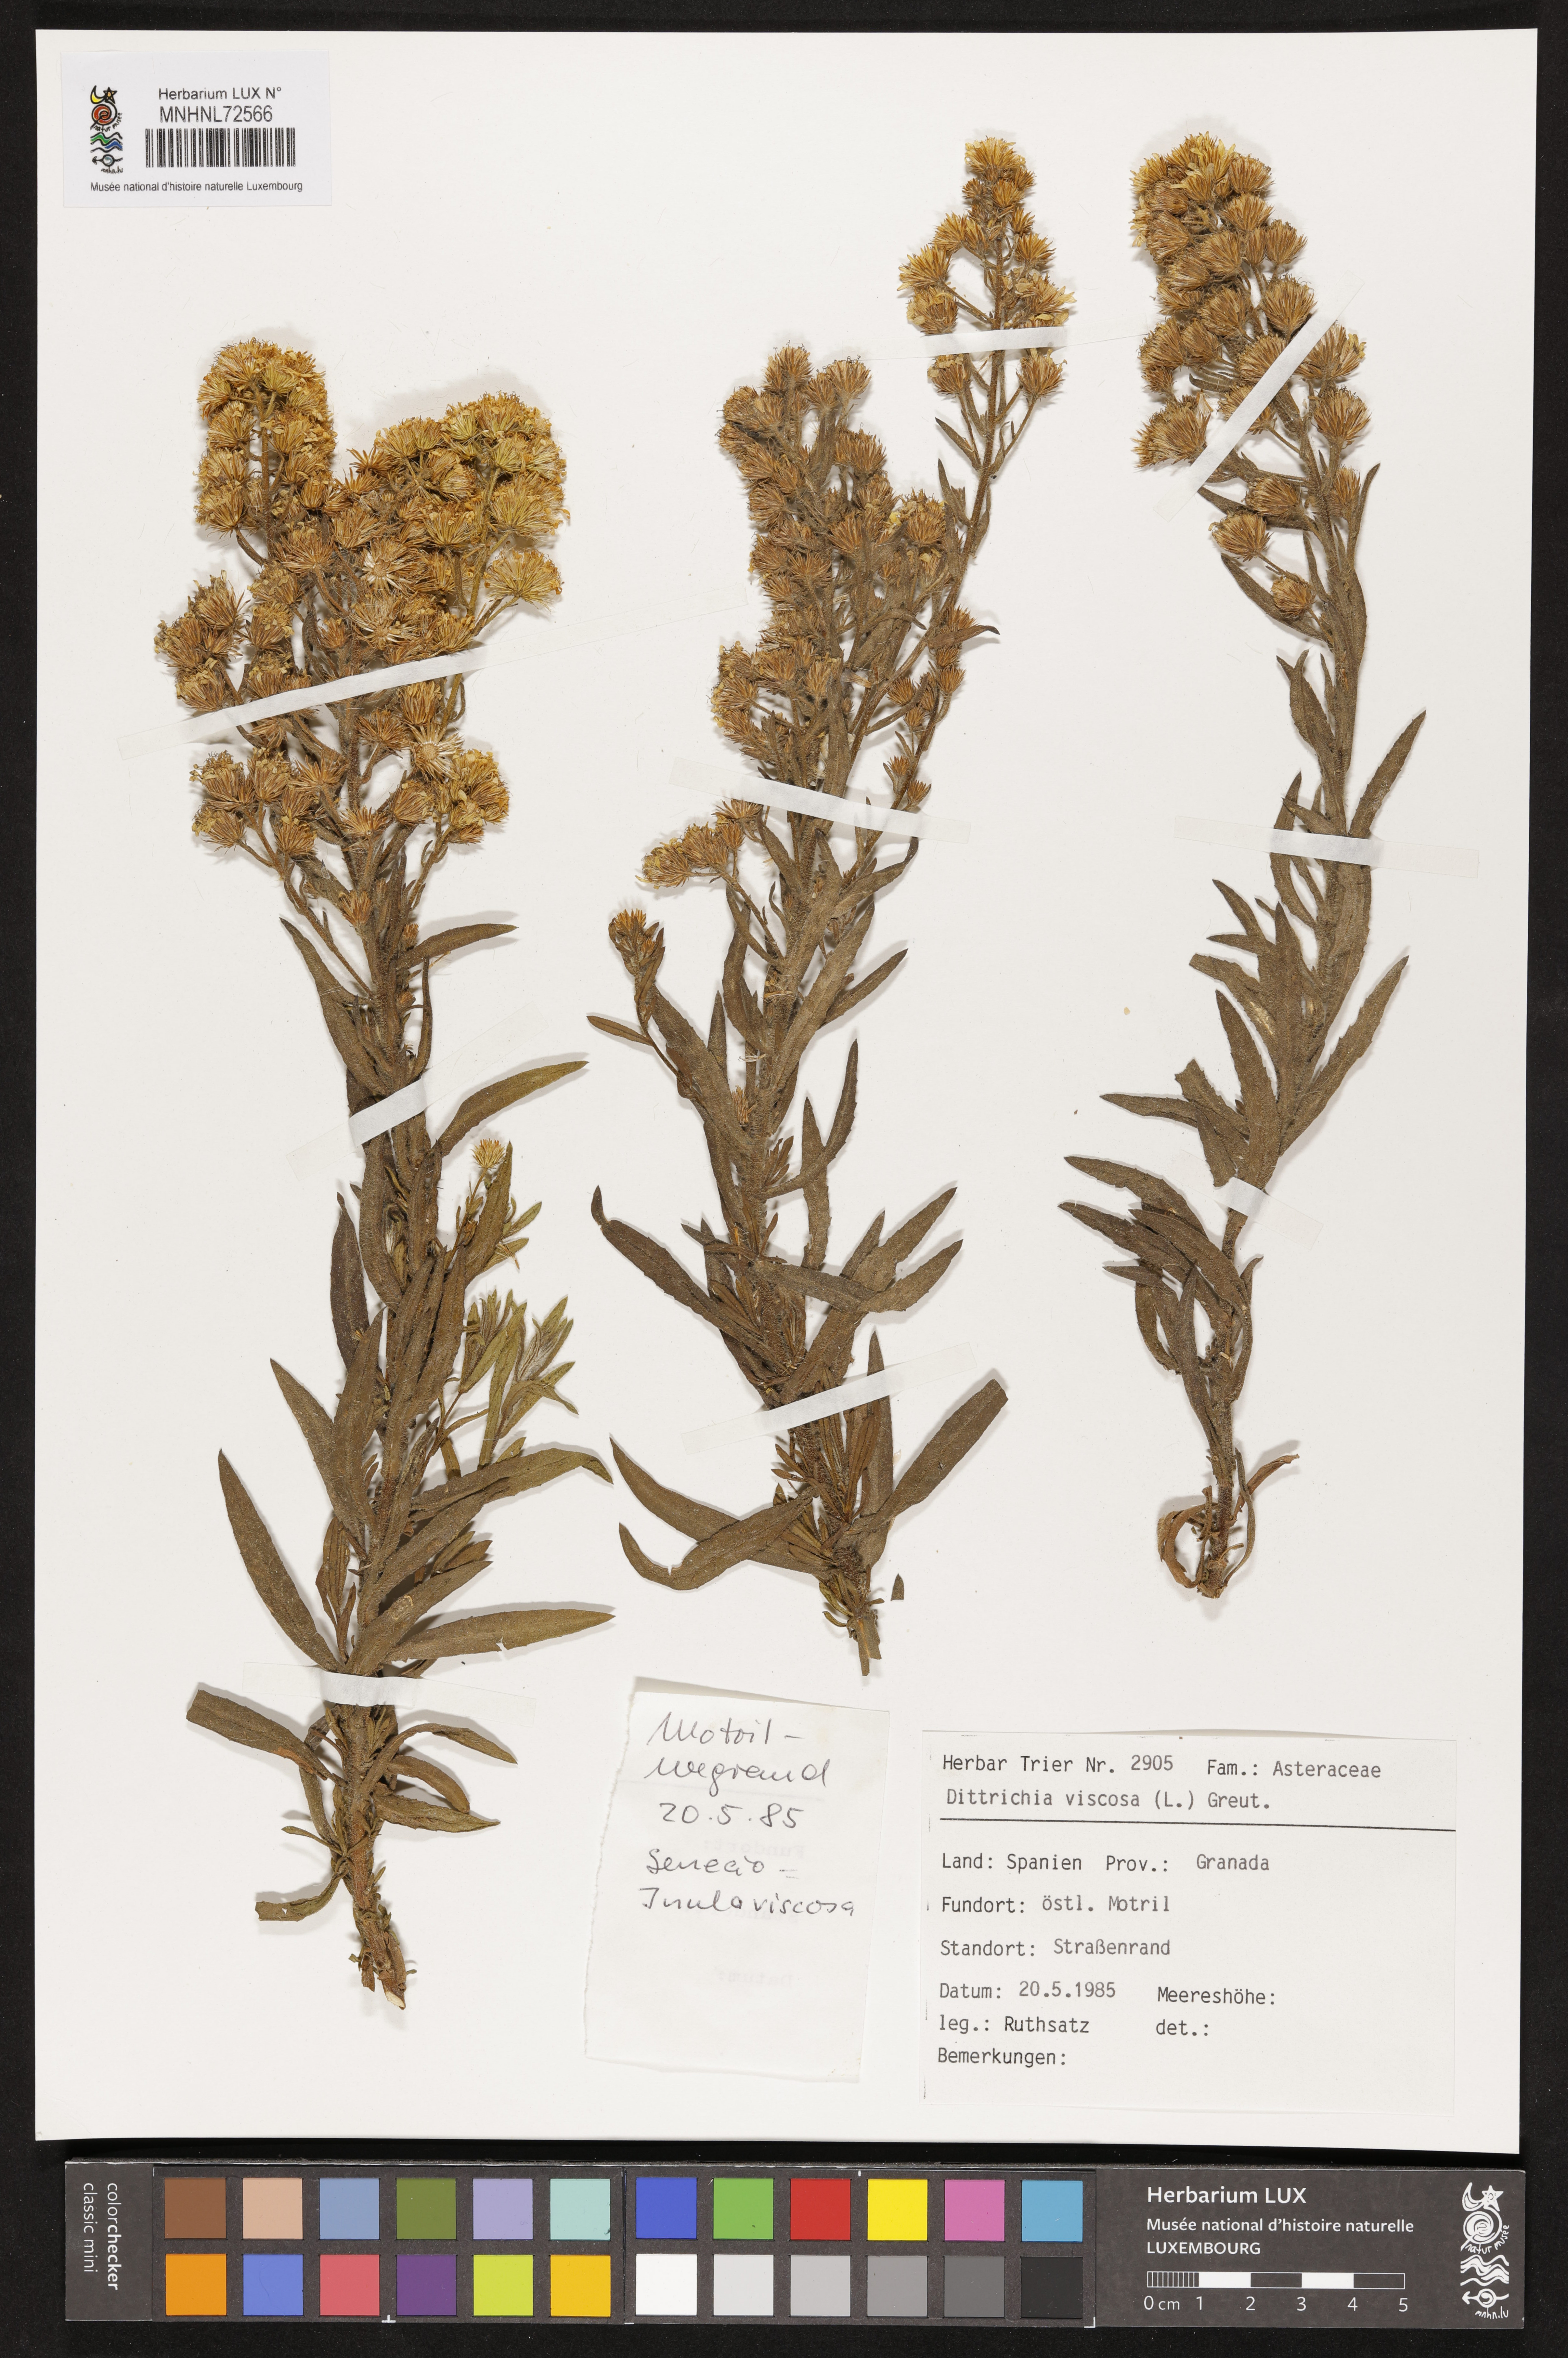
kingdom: Plantae
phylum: Tracheophyta
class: Magnoliopsida
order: Asterales
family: Asteraceae
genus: Dittrichia
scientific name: Dittrichia viscosa
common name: Woody fleabane
